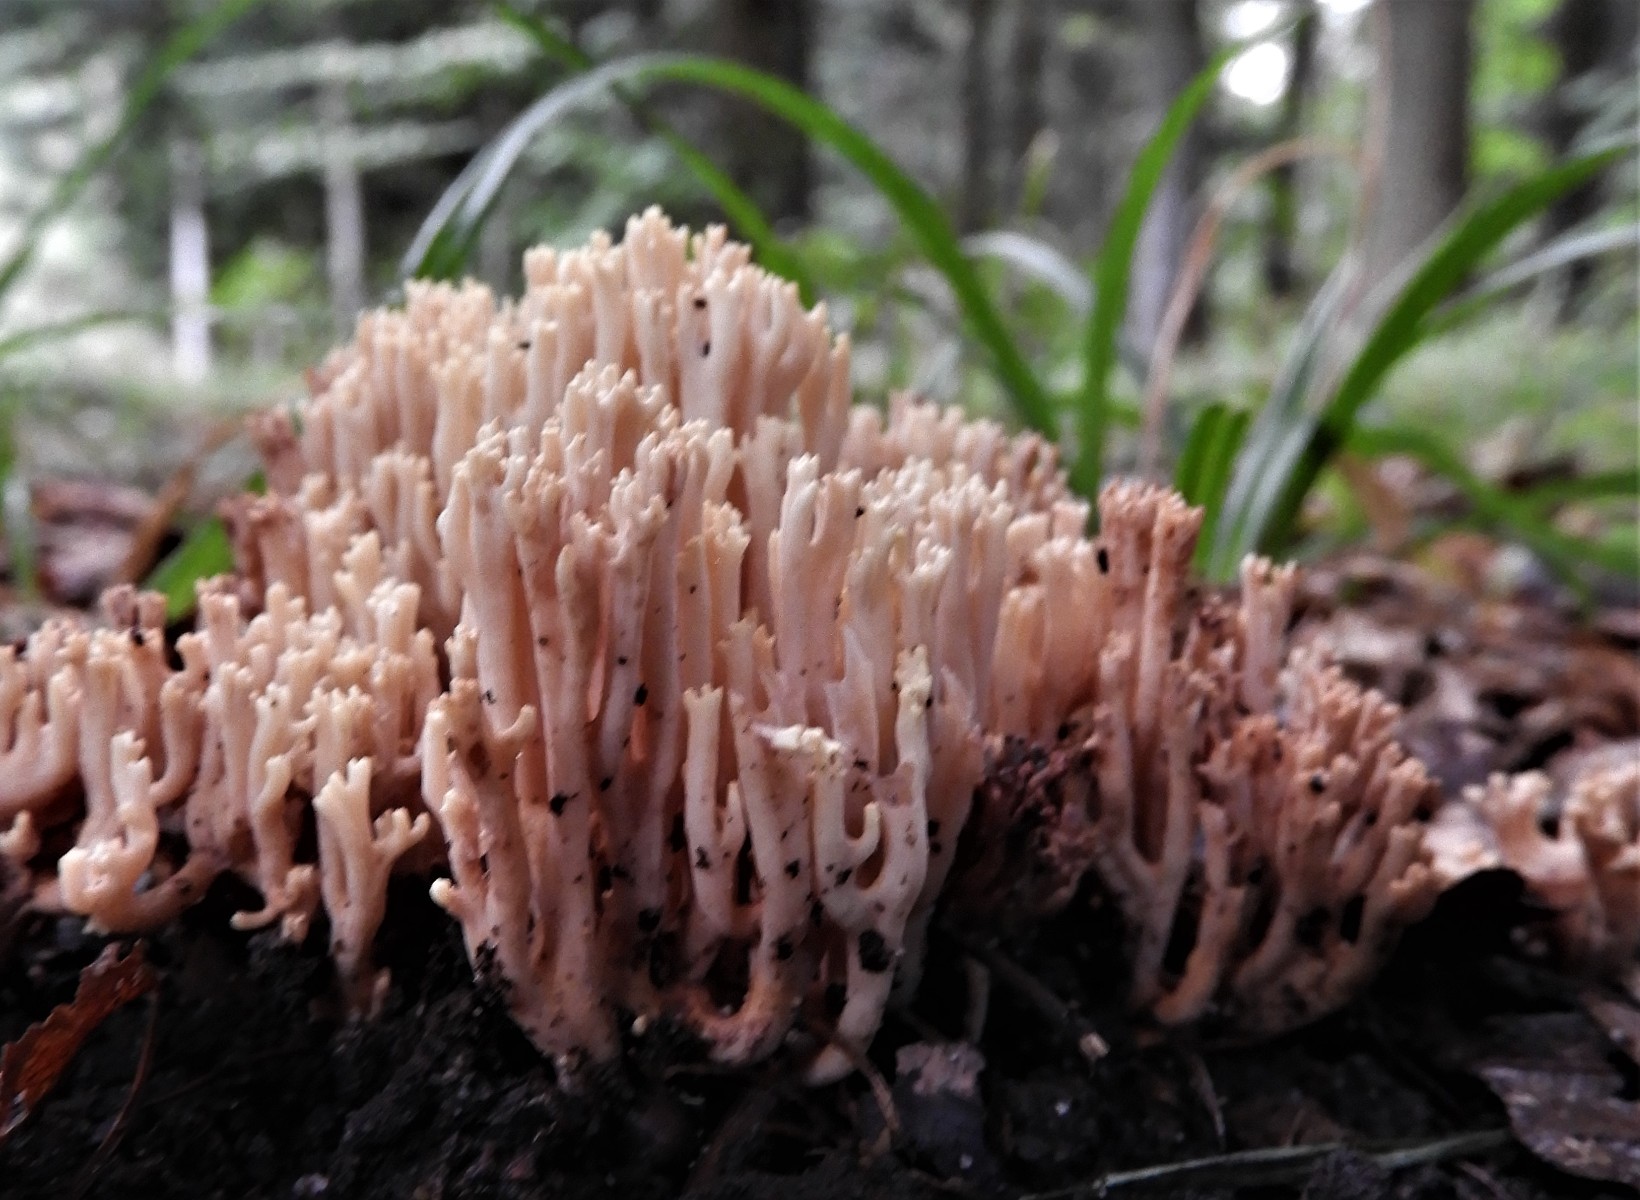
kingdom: Fungi
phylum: Basidiomycota
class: Agaricomycetes
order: Gomphales
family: Gomphaceae
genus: Ramaria
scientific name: Ramaria stricta
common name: rank koralsvamp
